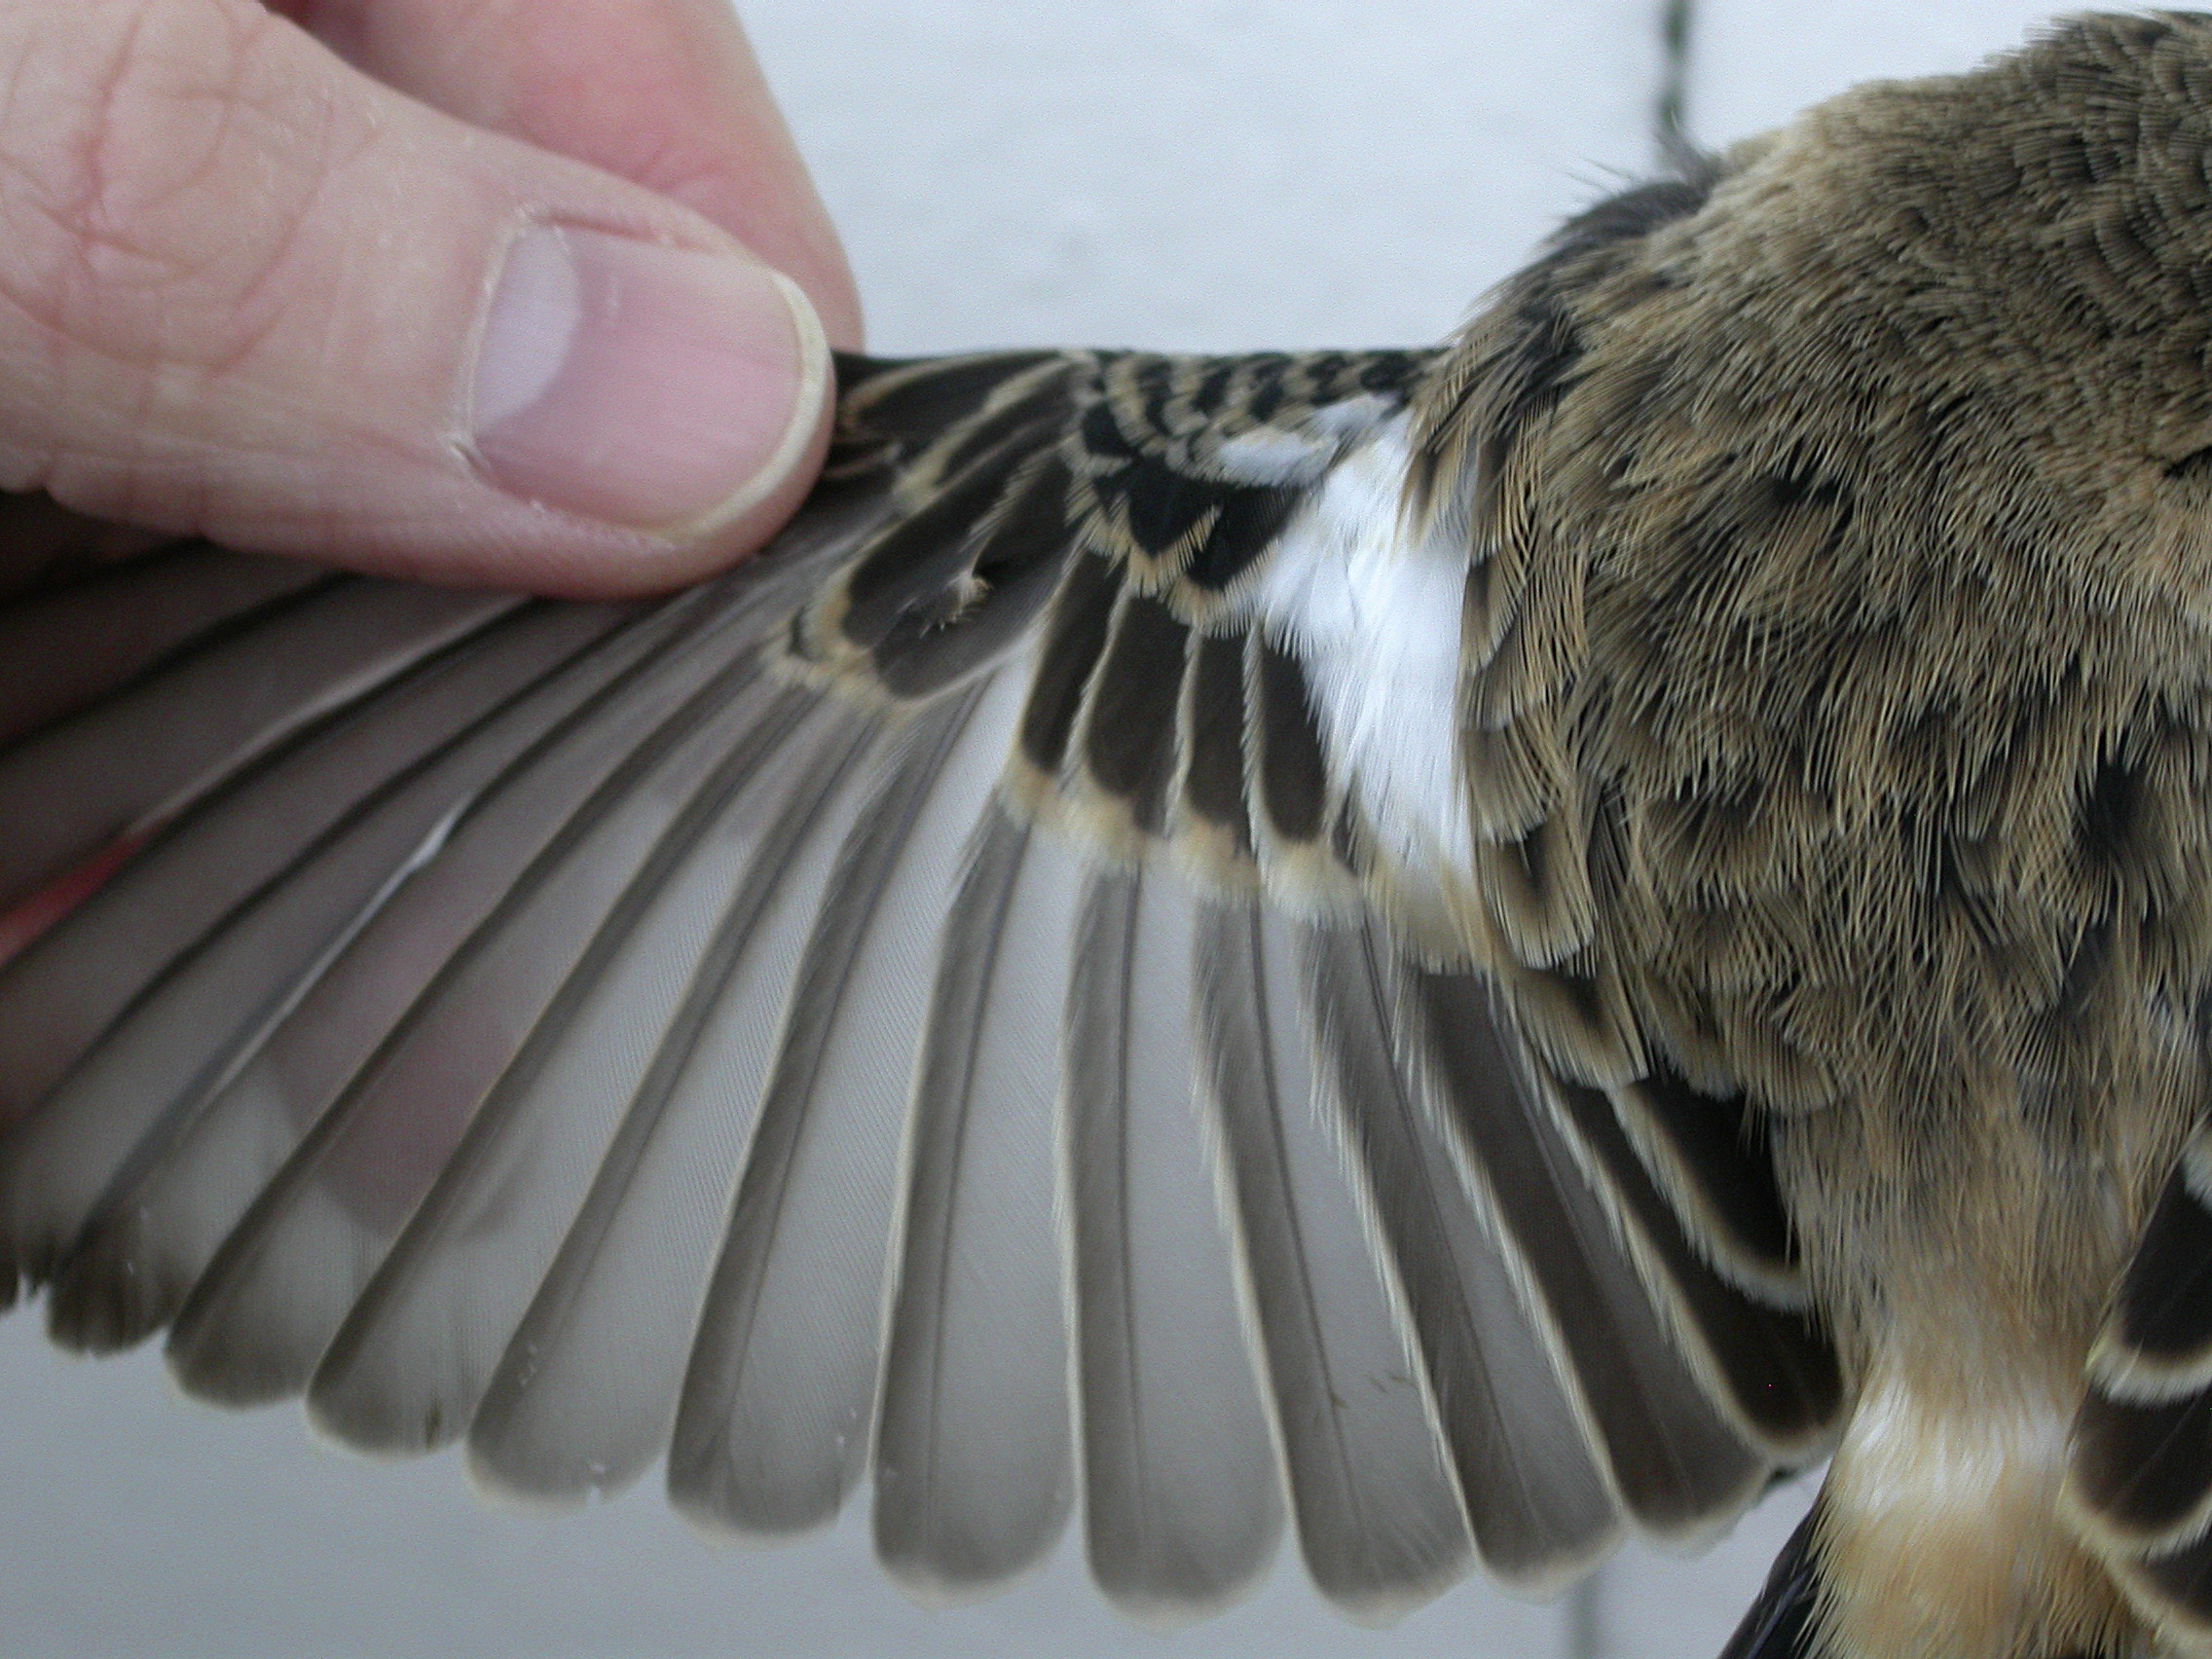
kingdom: Animalia
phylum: Chordata
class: Aves
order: Passeriformes
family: Muscicapidae
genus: Saxicola
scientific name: Saxicola maurus
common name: Siberian stonechat
